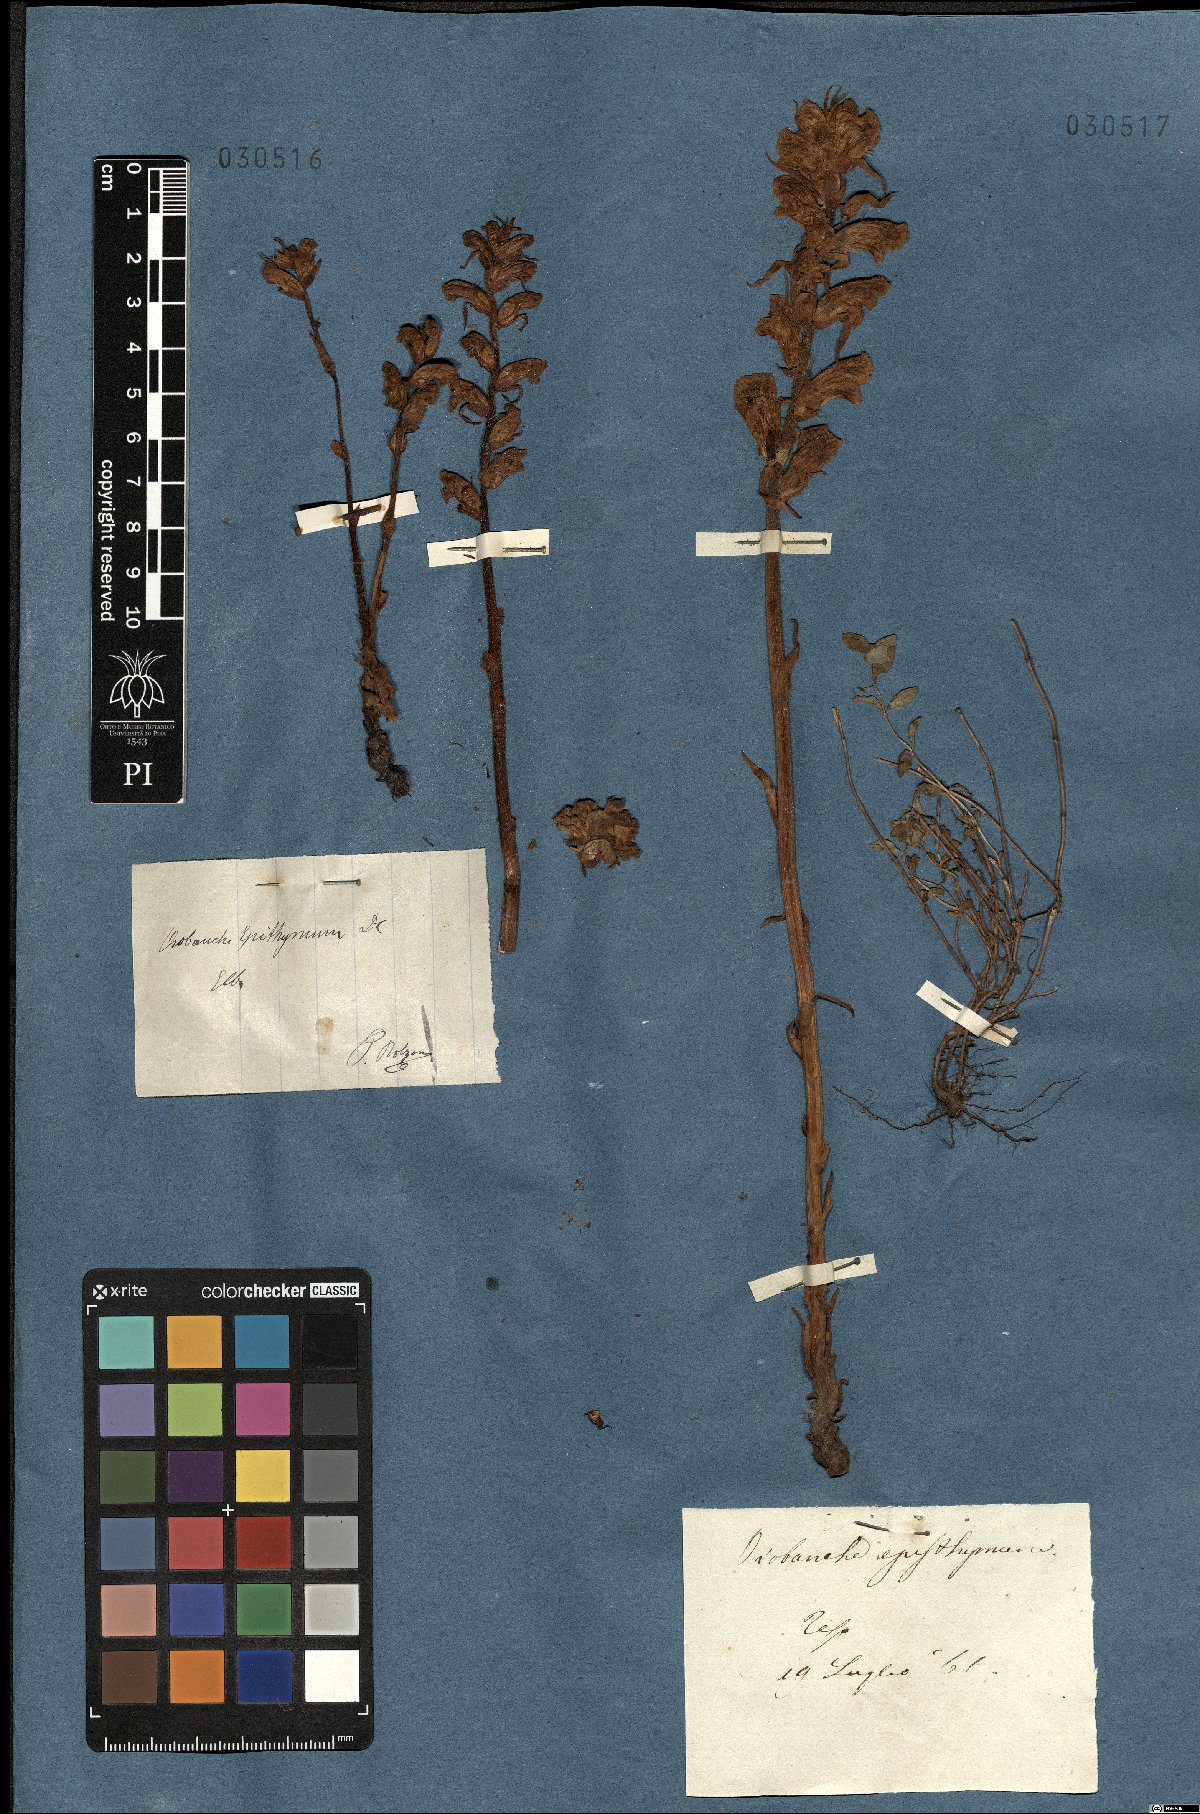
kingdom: Plantae
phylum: Tracheophyta
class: Magnoliopsida
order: Lamiales
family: Orobanchaceae
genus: Orobanche
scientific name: Orobanche alba
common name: Thyme broomrape
